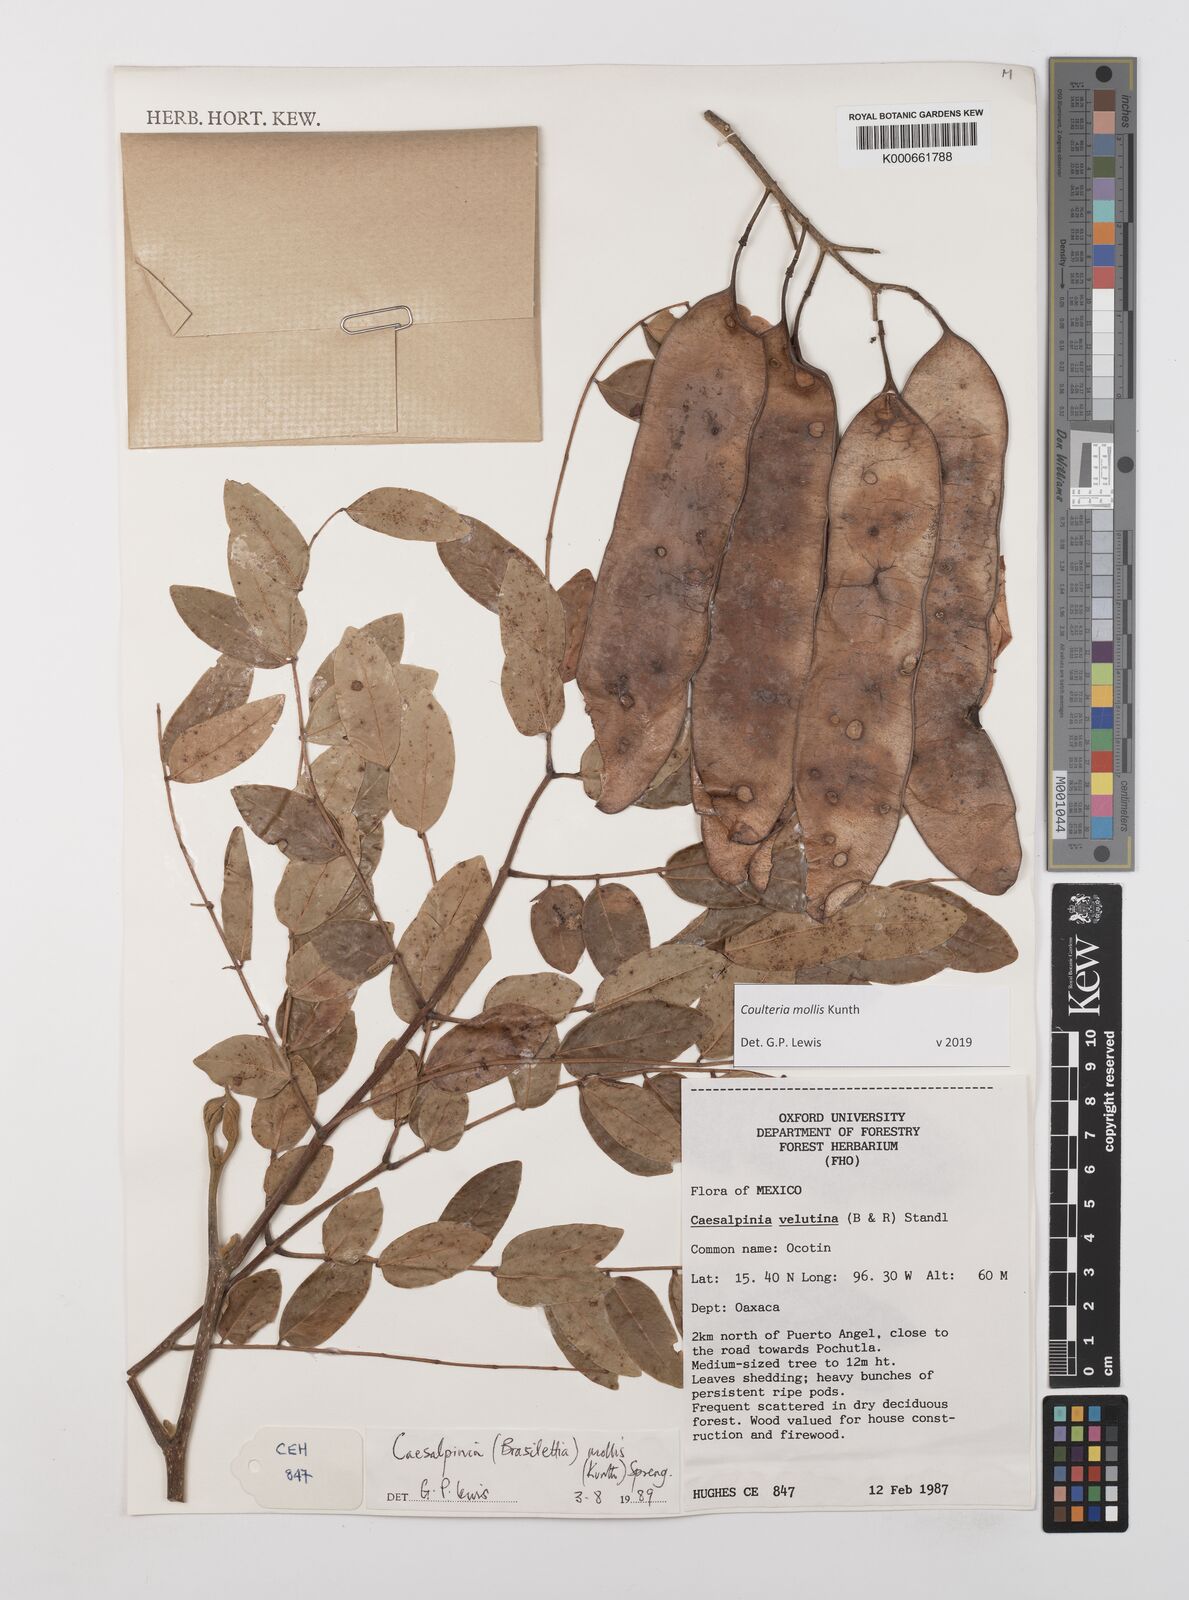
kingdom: Plantae
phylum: Tracheophyta
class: Magnoliopsida
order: Fabales
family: Fabaceae
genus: Coulteria
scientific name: Coulteria mollis
